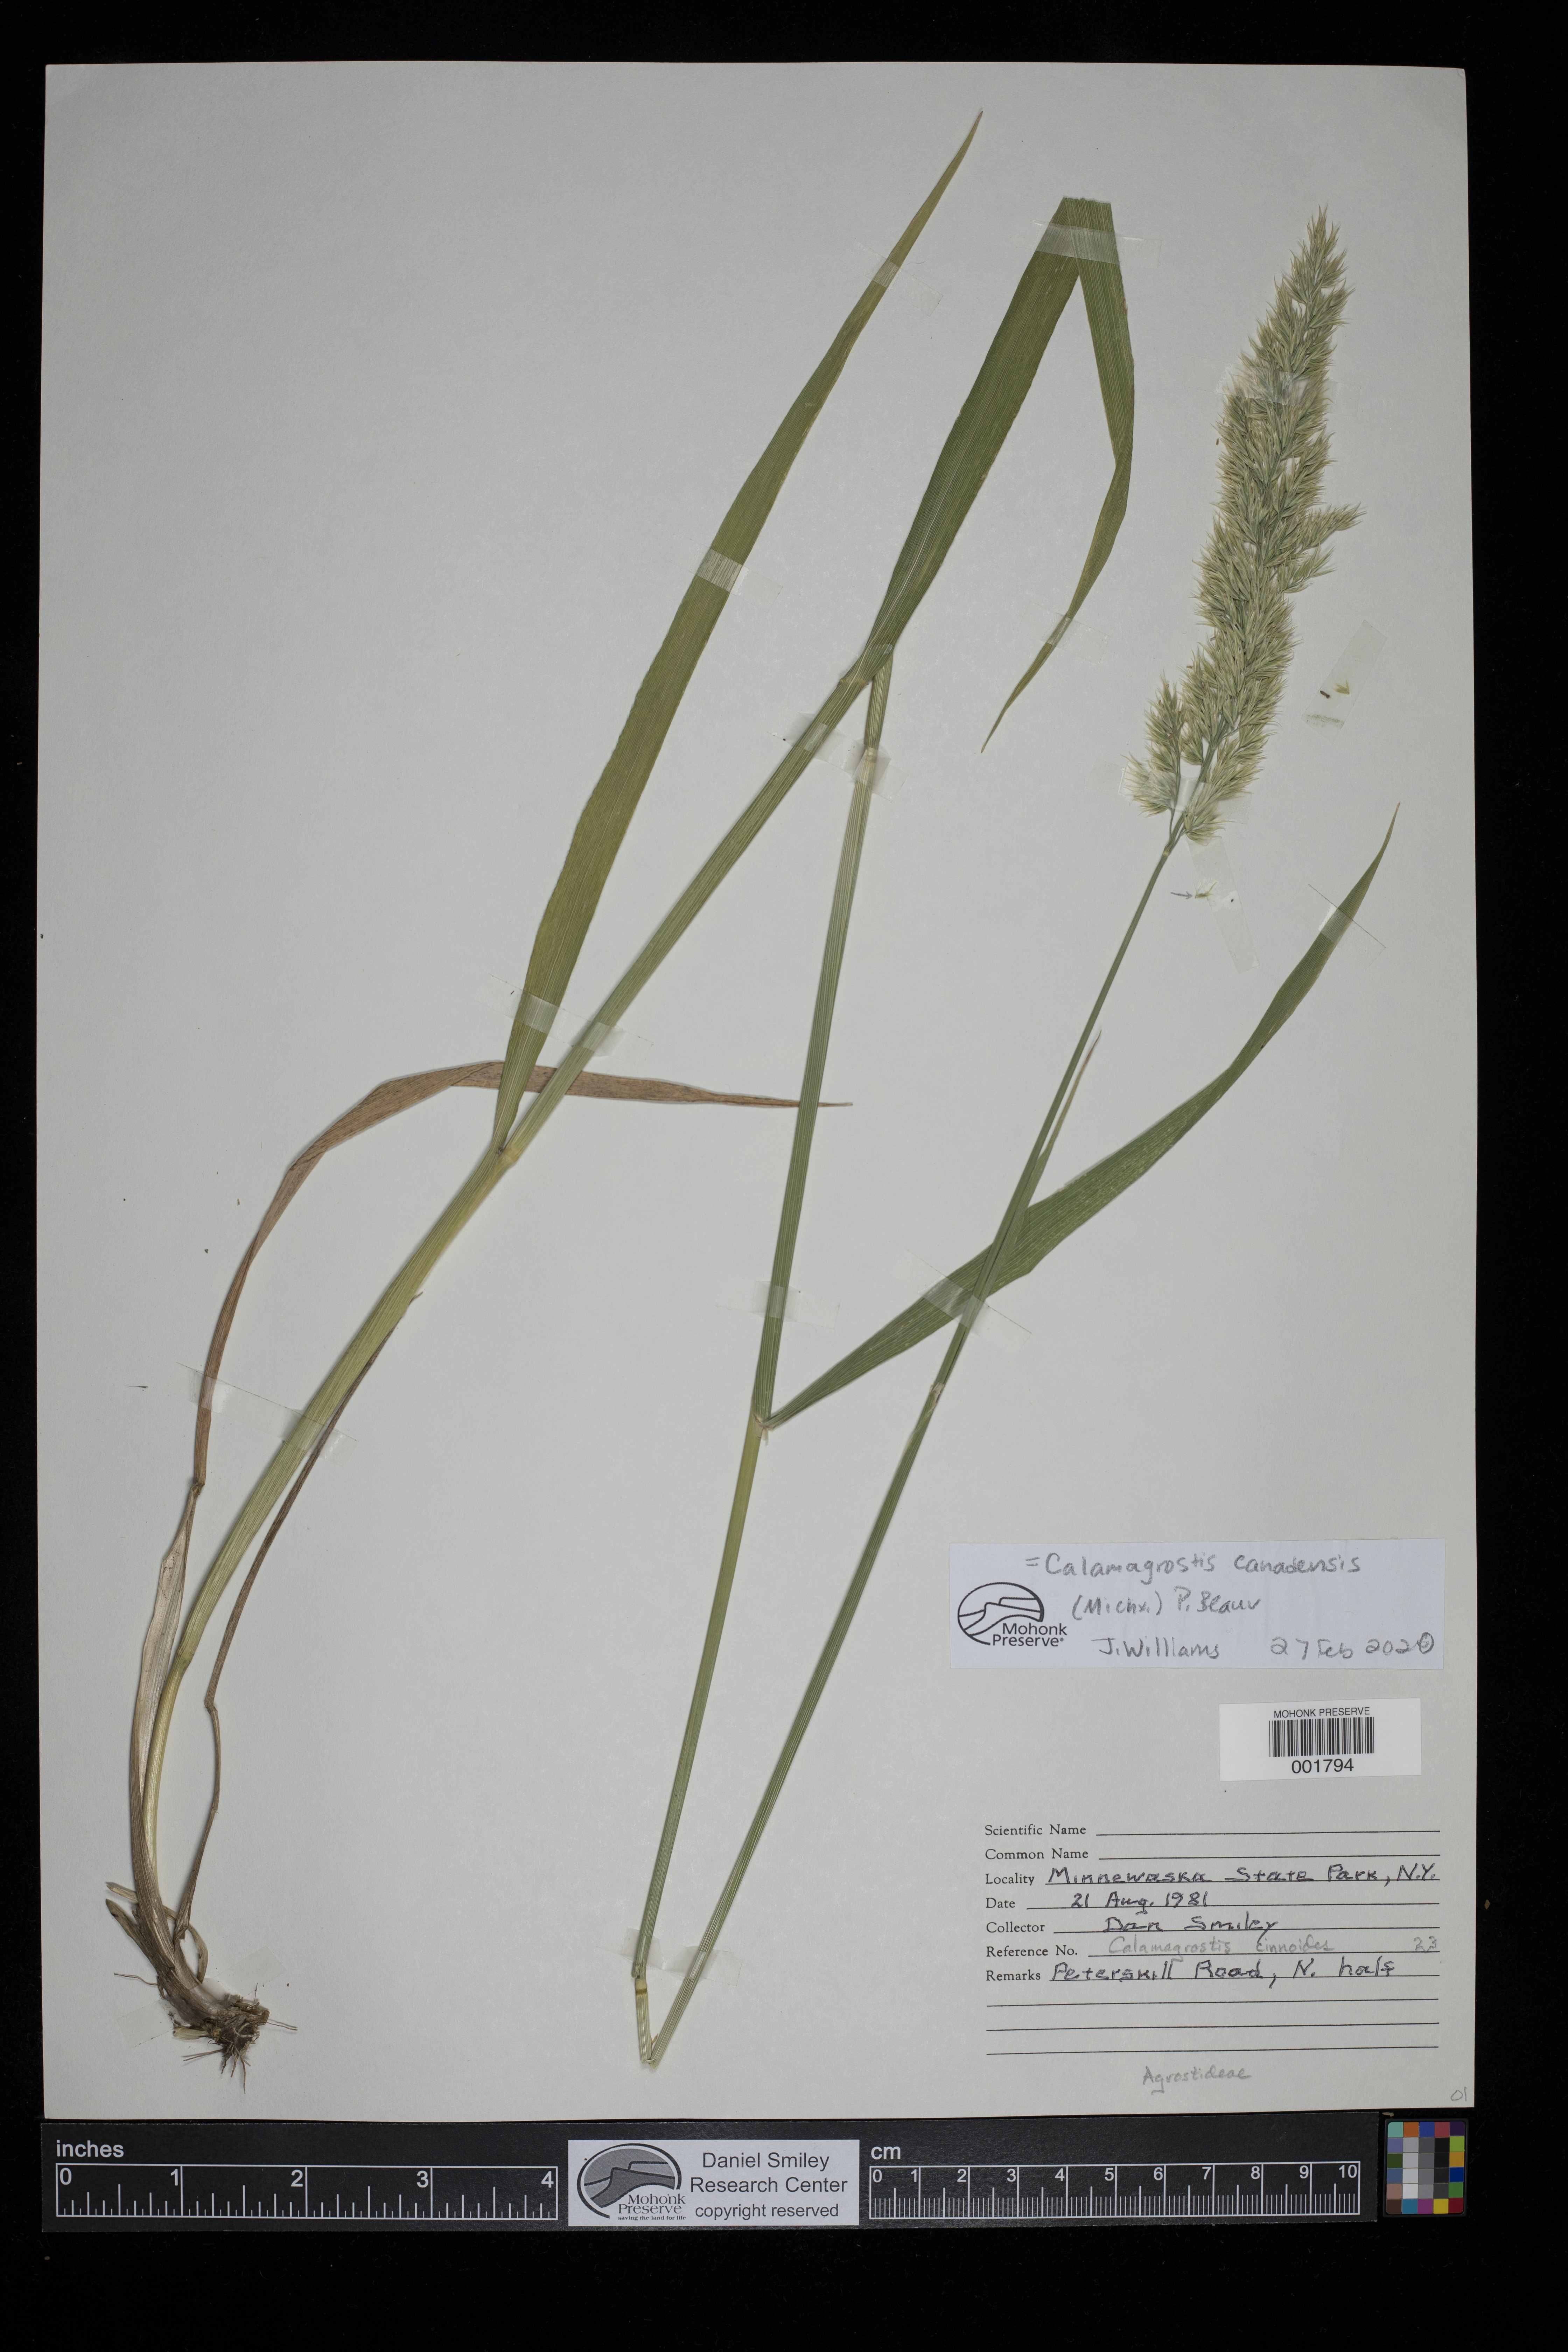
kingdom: Plantae
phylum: Tracheophyta
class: Liliopsida
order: Poales
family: Poaceae
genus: Calamagrostis
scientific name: Calamagrostis canadensis
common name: Canada bluejoint
